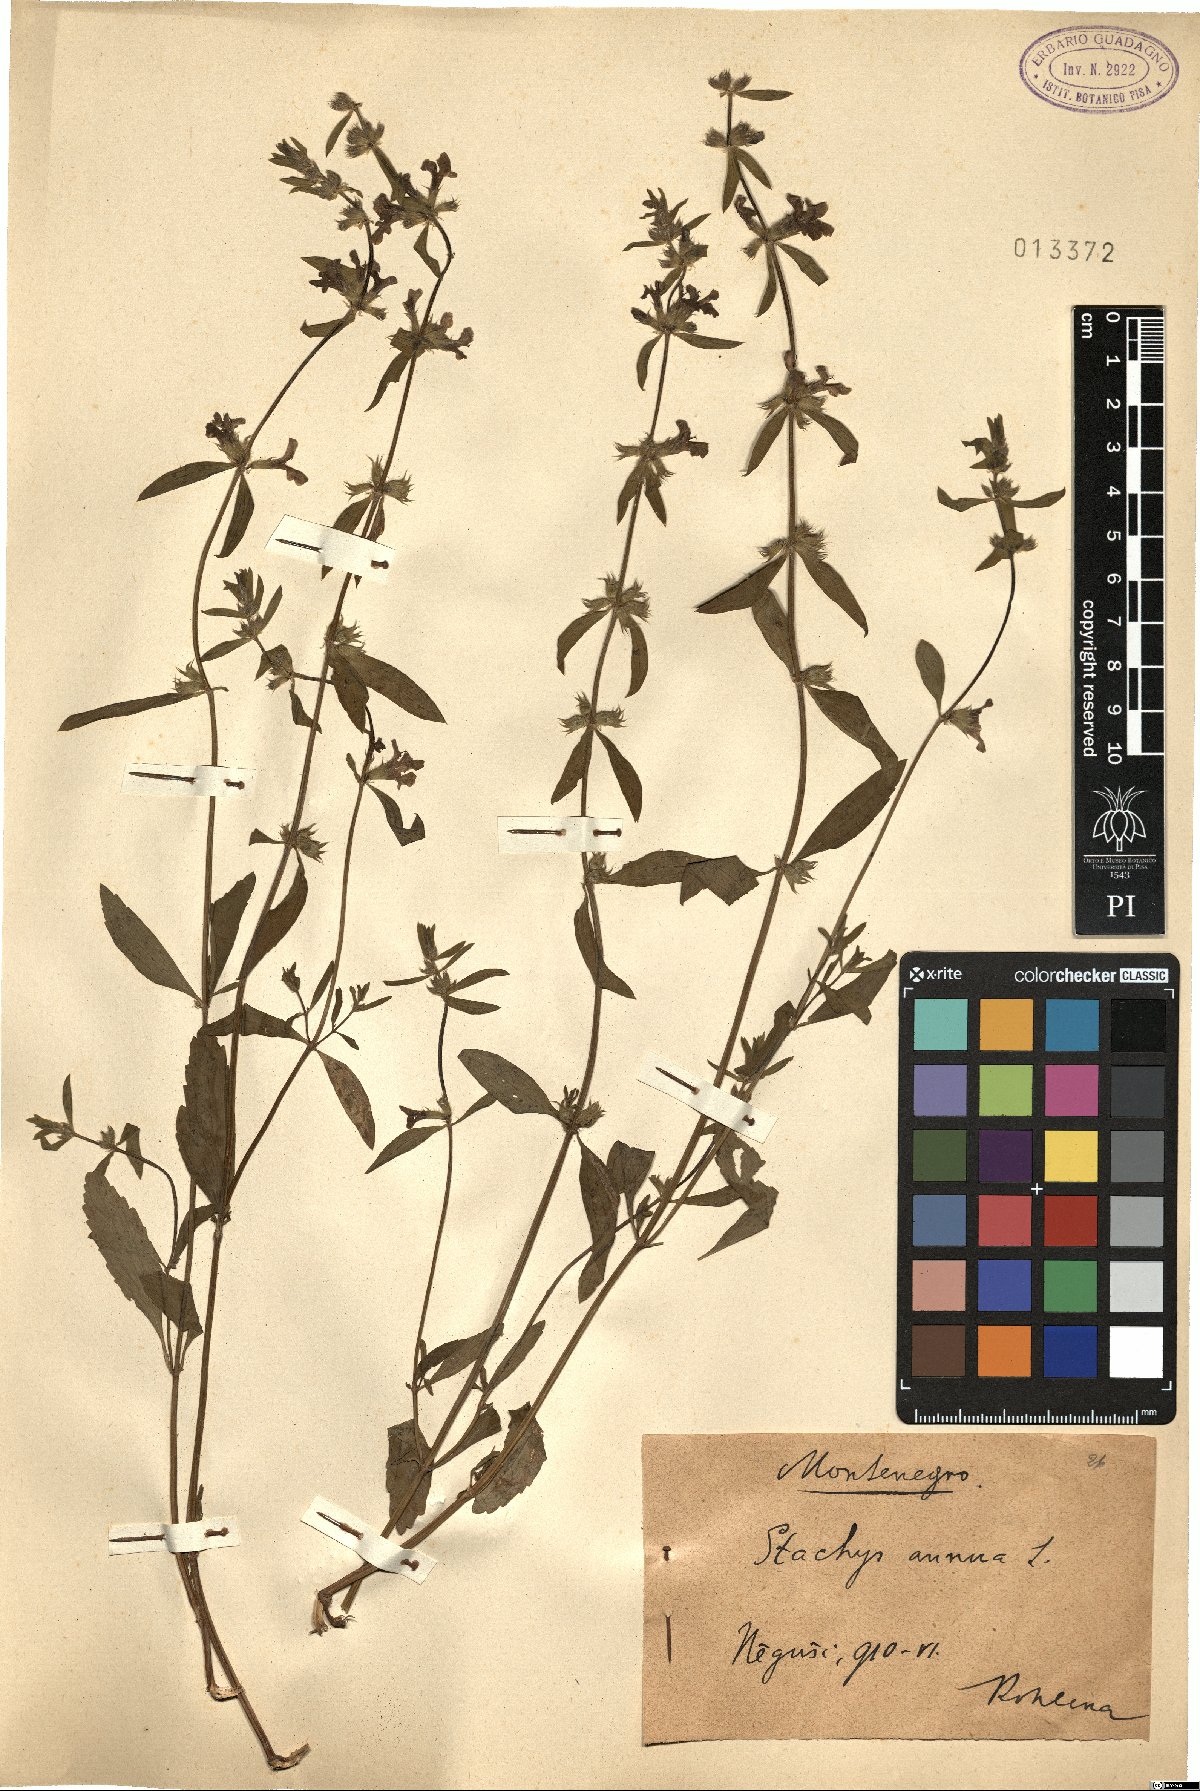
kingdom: Plantae
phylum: Tracheophyta
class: Magnoliopsida
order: Lamiales
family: Lamiaceae
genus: Stachys
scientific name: Stachys annua
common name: Annual yellow-woundwort
